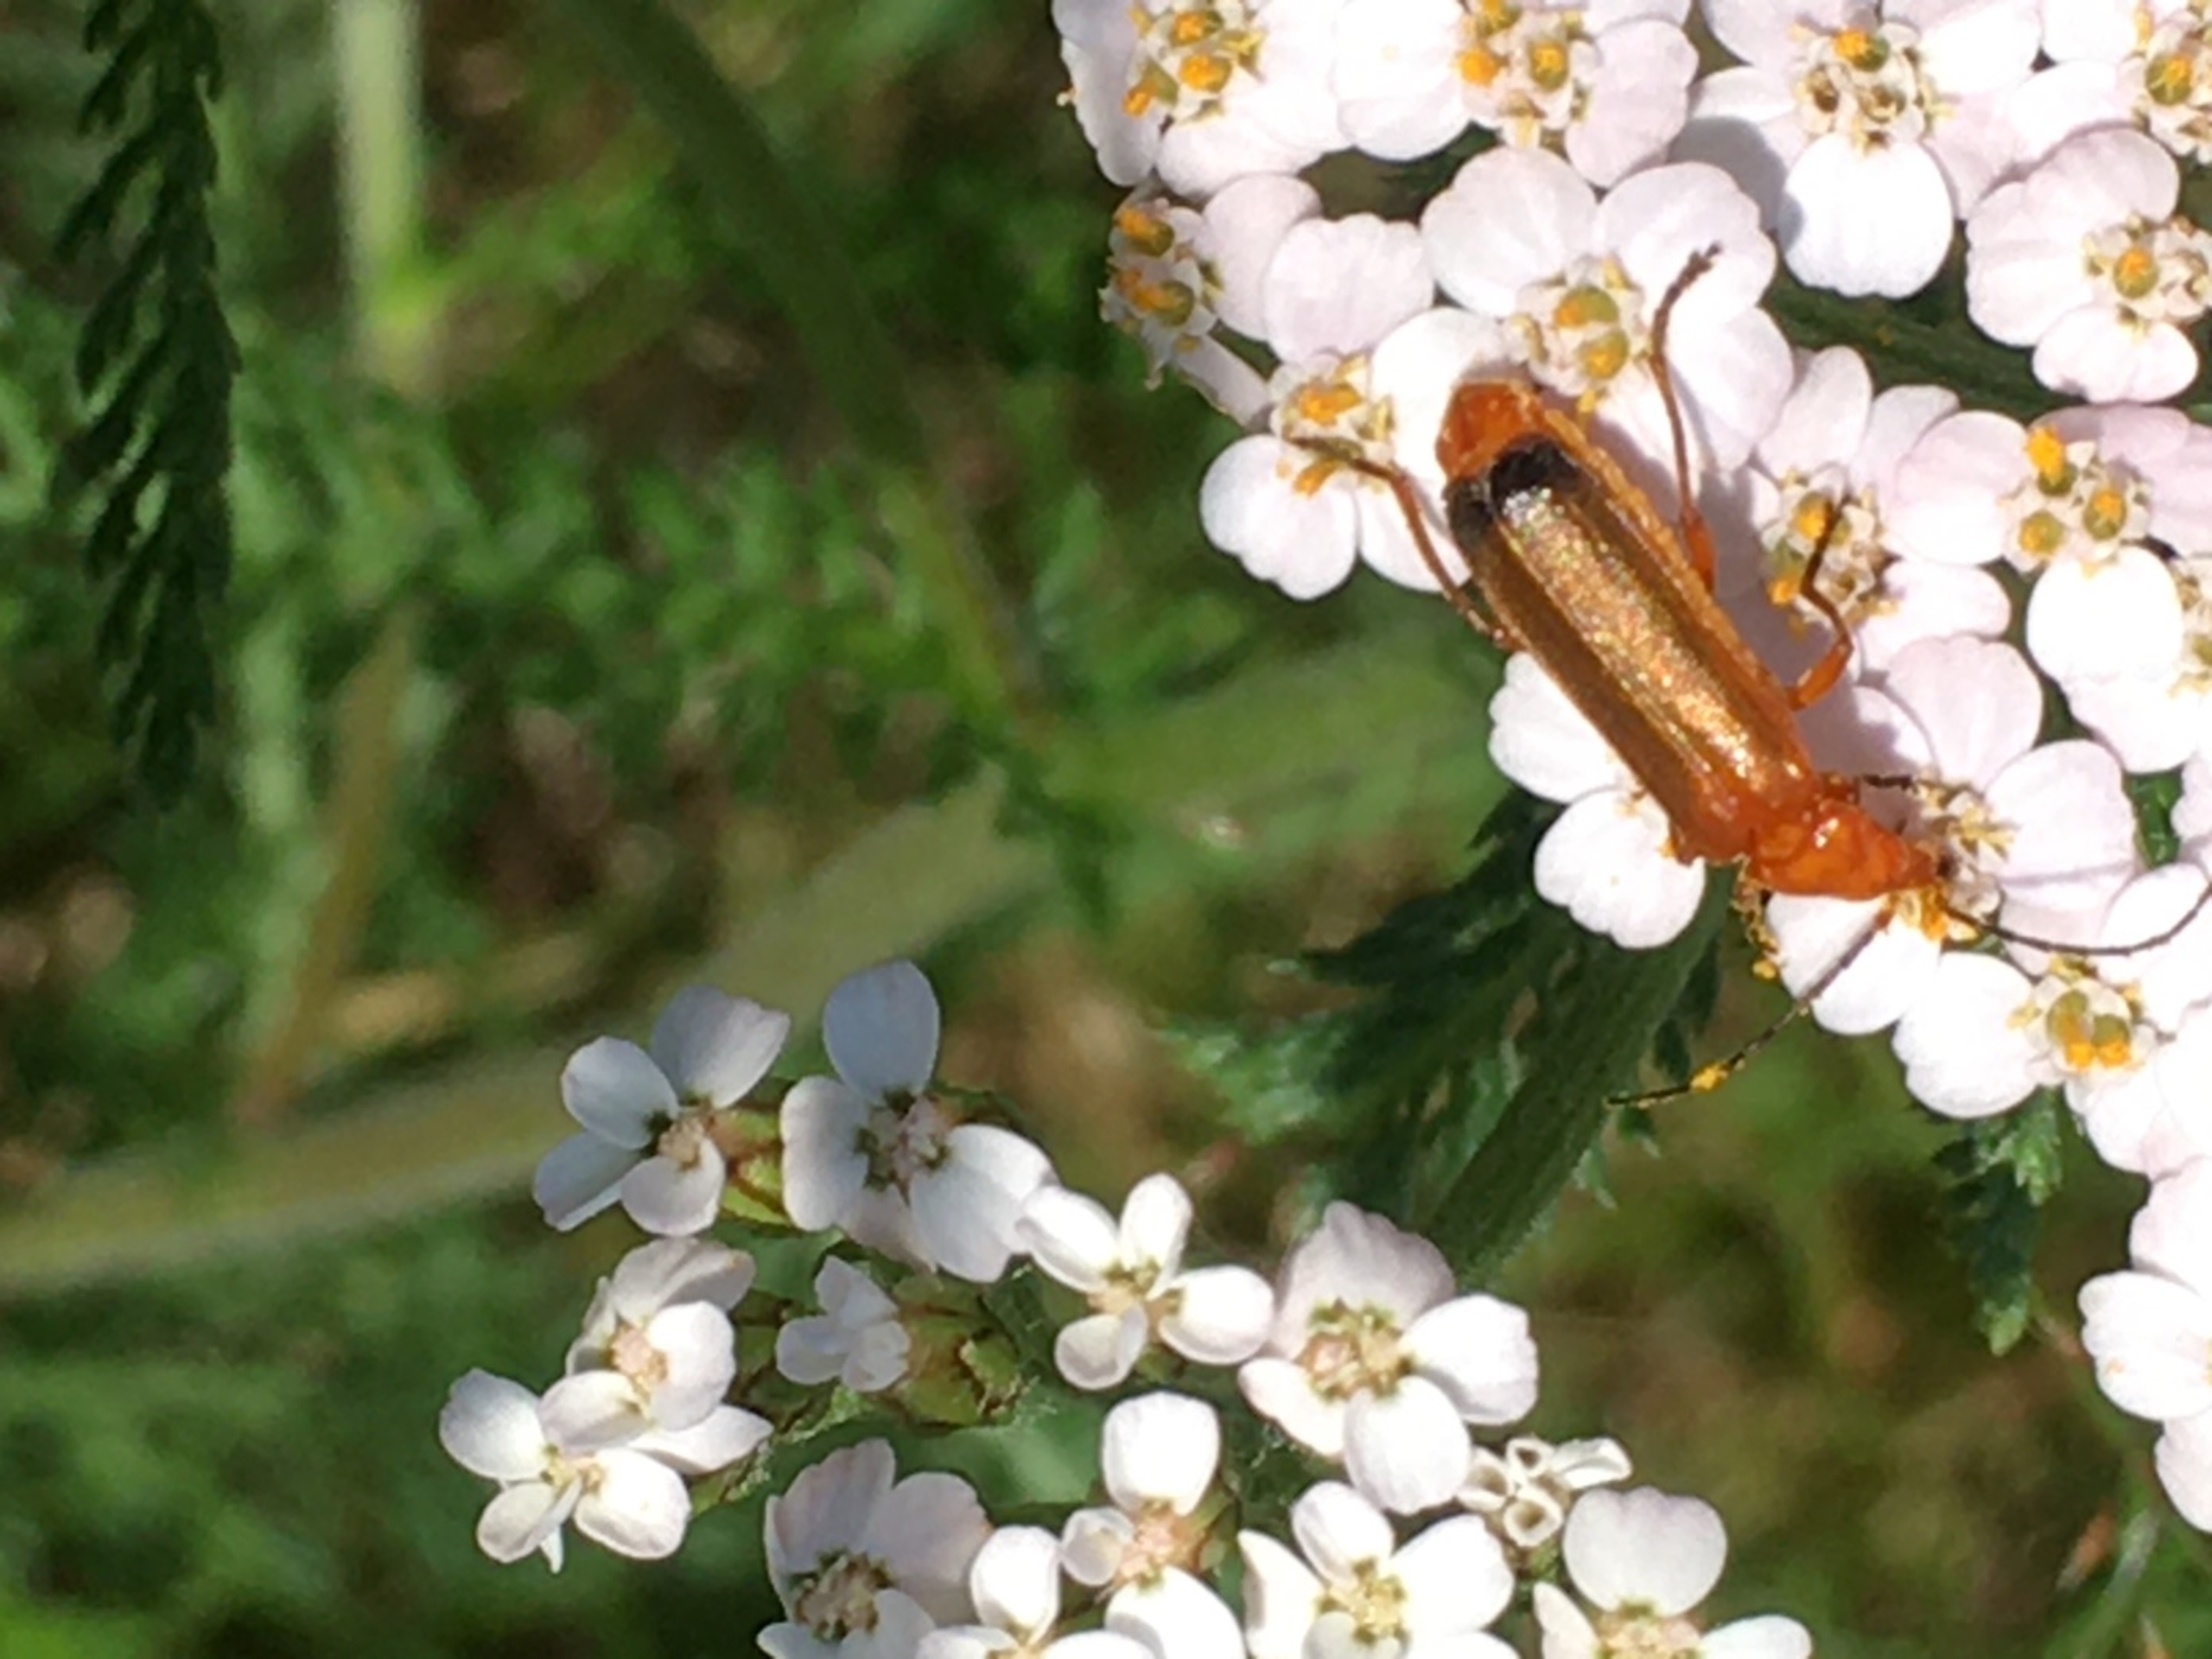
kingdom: Animalia
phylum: Arthropoda
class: Insecta
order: Coleoptera
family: Cantharidae
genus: Rhagonycha
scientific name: Rhagonycha fulva
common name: Præstebille
